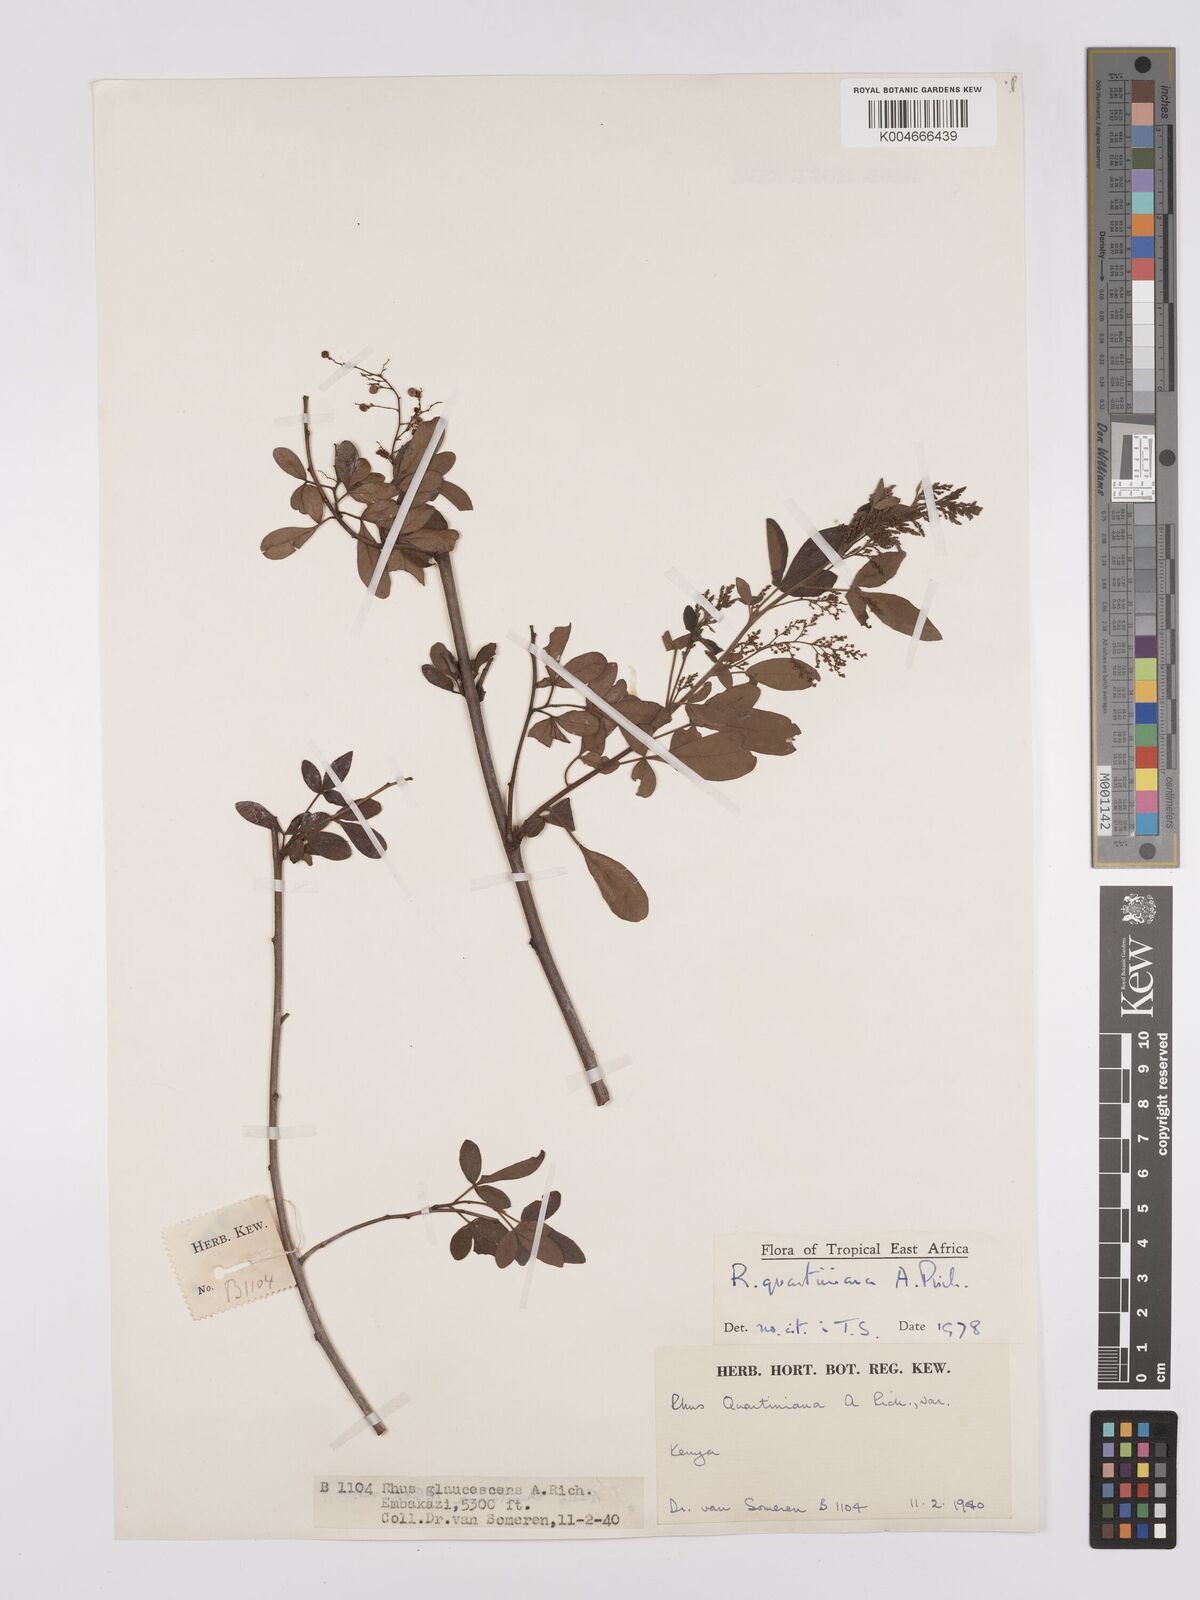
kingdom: Plantae
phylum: Tracheophyta
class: Magnoliopsida
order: Sapindales
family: Anacardiaceae
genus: Searsia
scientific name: Searsia quartiniana
